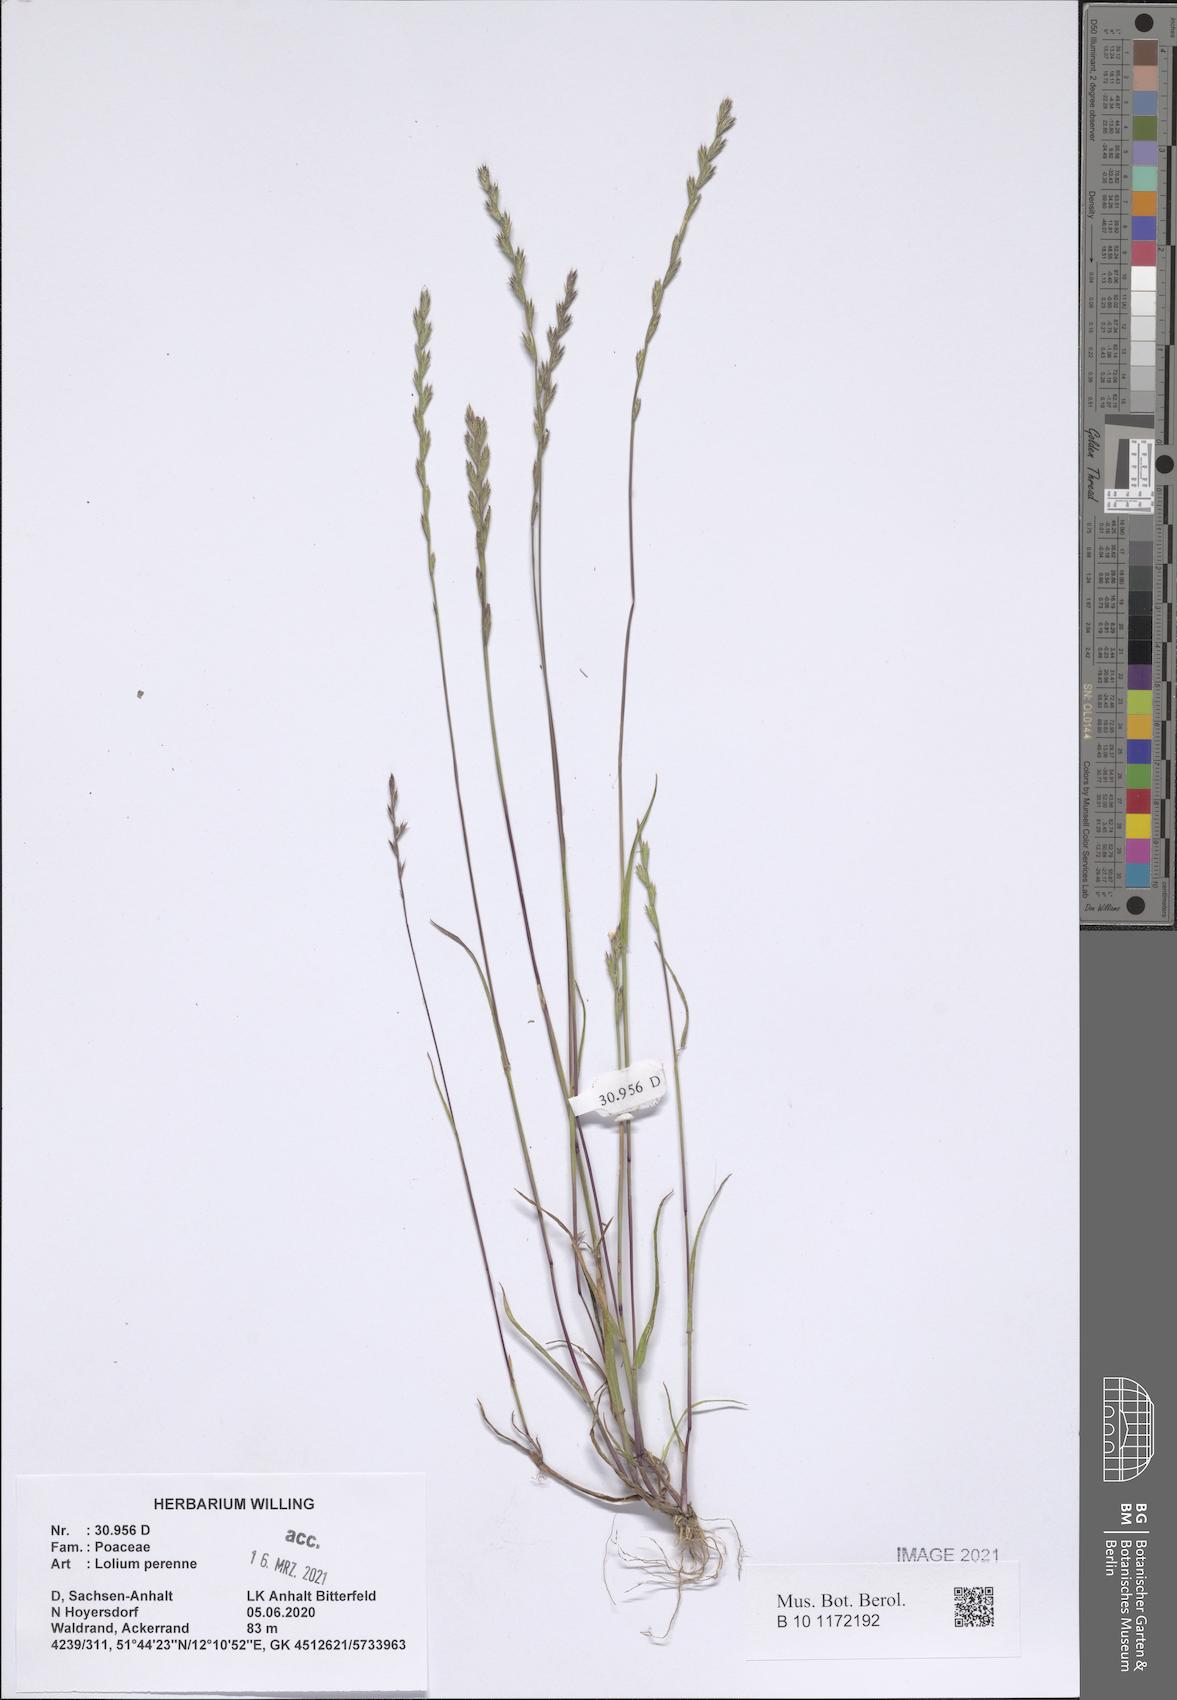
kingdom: Plantae
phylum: Tracheophyta
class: Liliopsida
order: Poales
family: Poaceae
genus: Lolium
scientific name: Lolium perenne
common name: Perennial ryegrass
